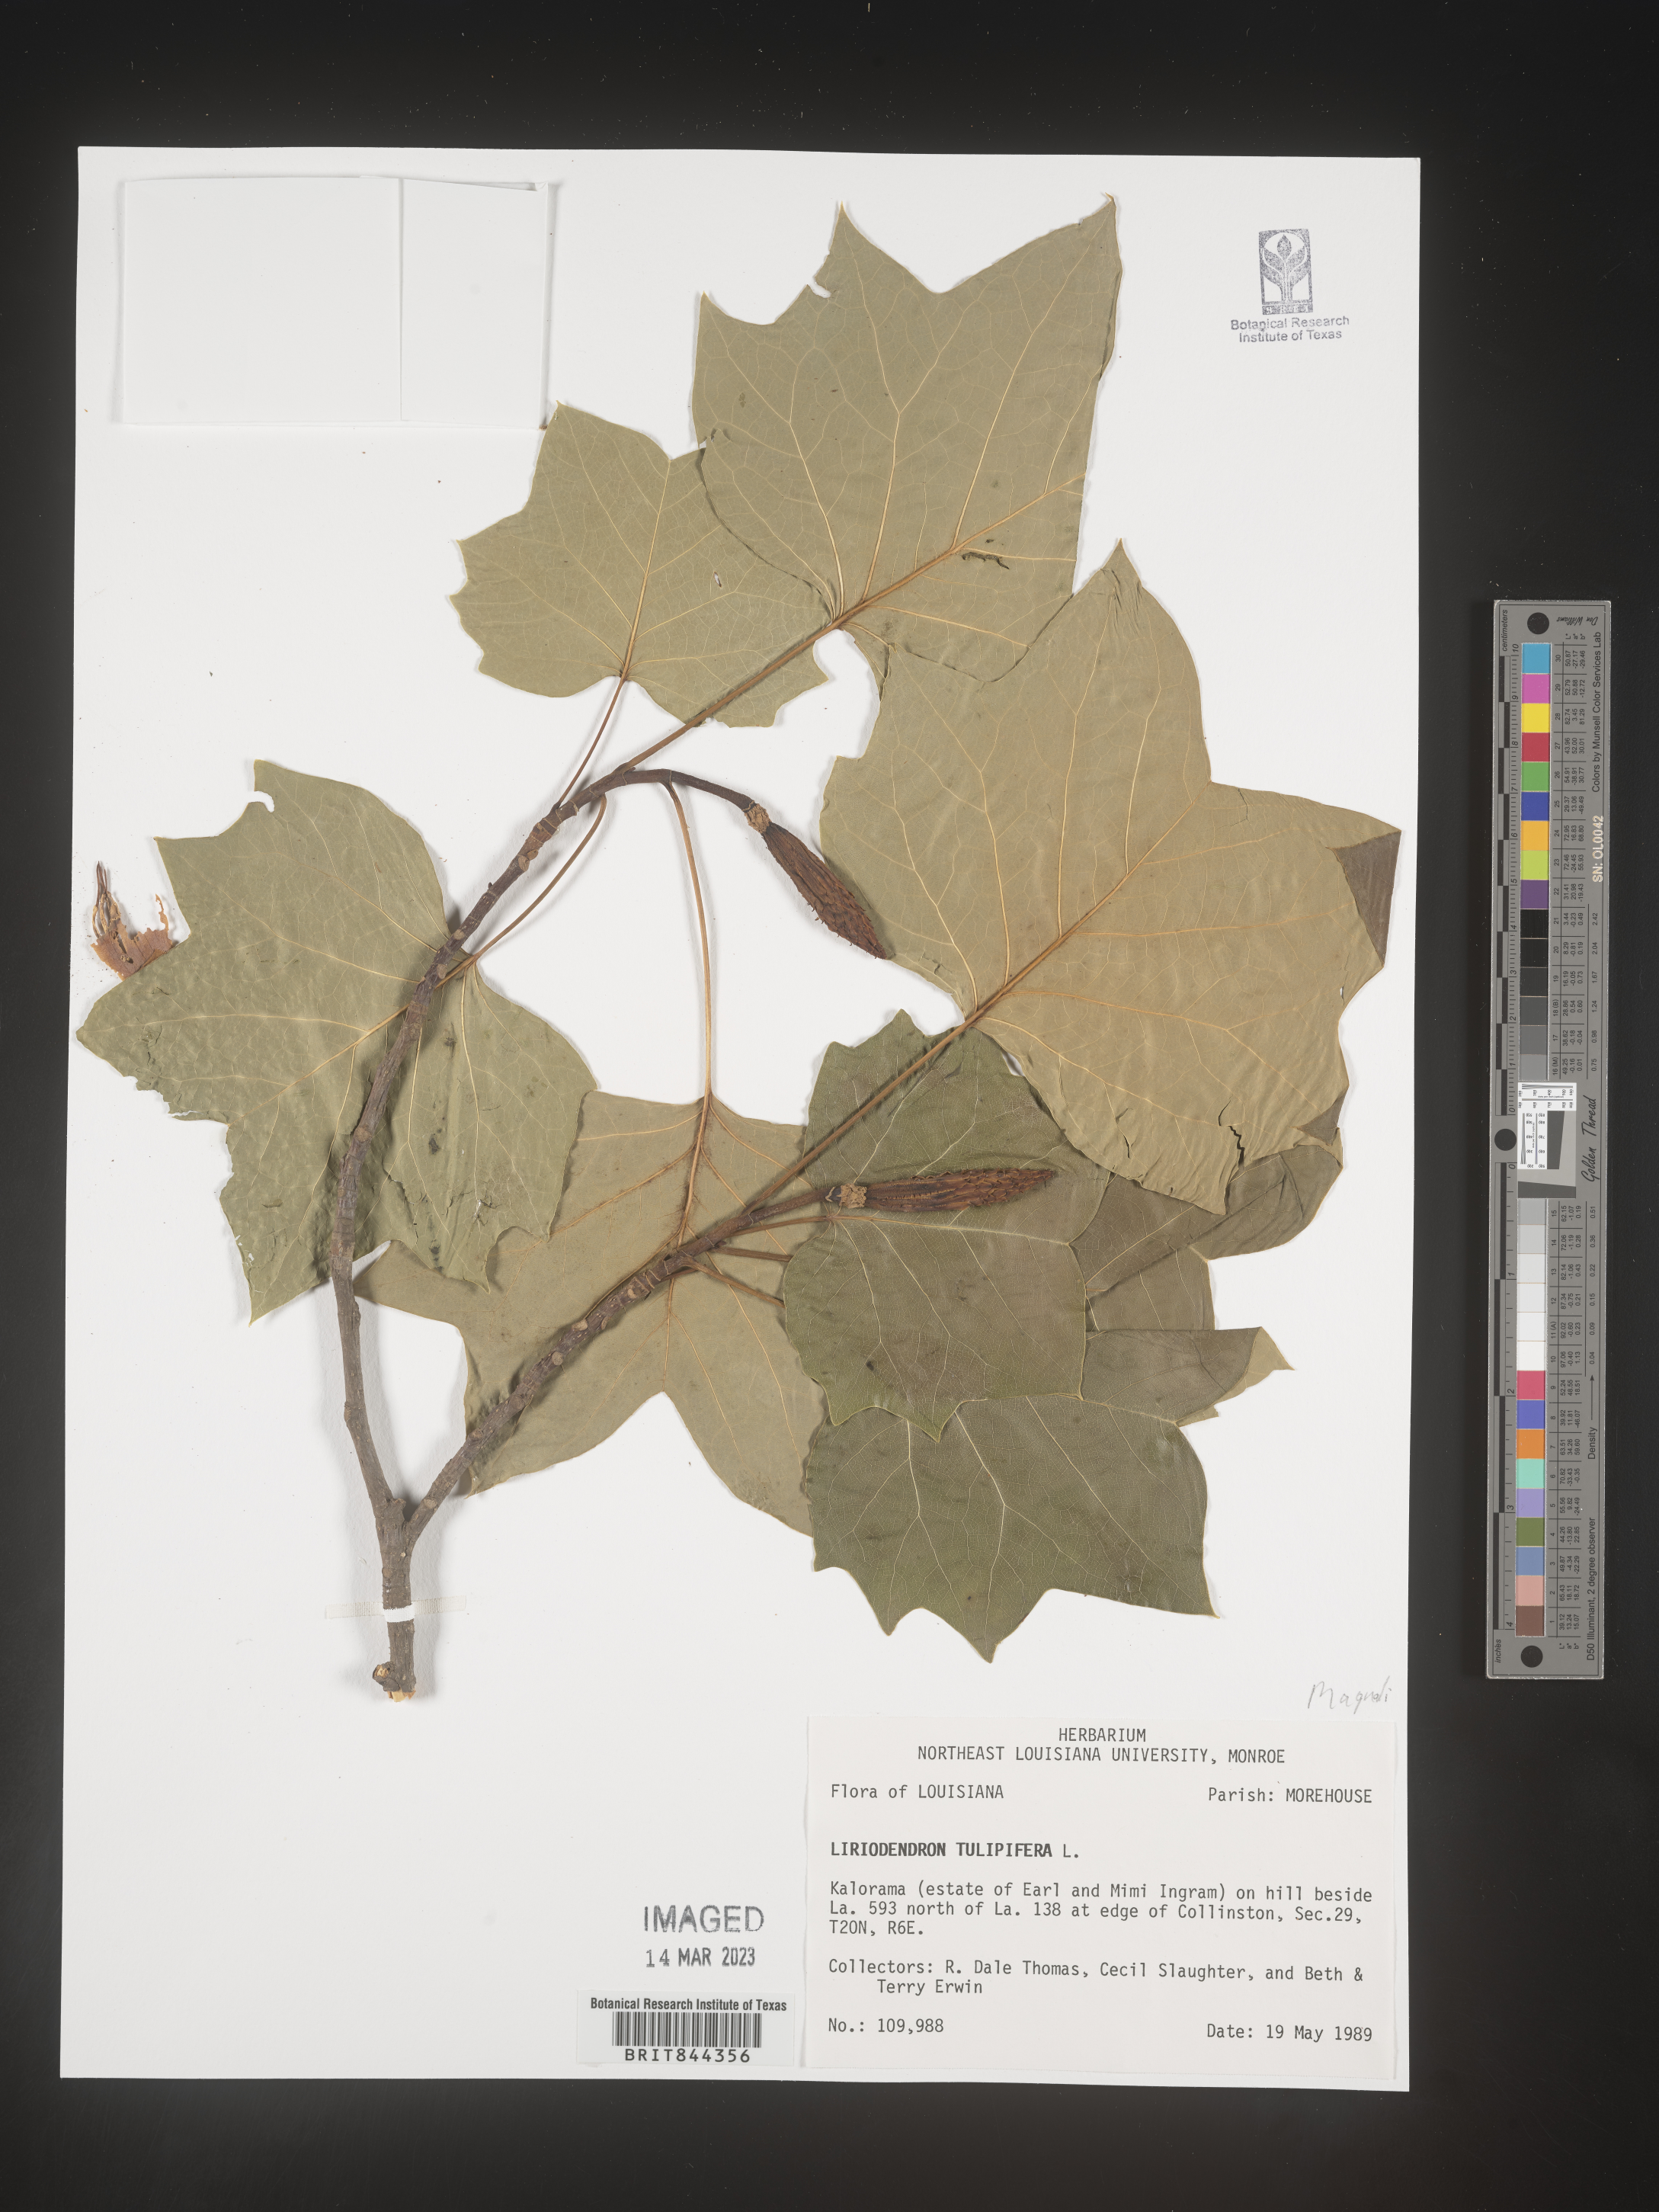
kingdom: Plantae
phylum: Tracheophyta
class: Magnoliopsida
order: Magnoliales
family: Magnoliaceae
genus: Liriodendron
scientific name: Liriodendron tulipifera
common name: Tulip tree
